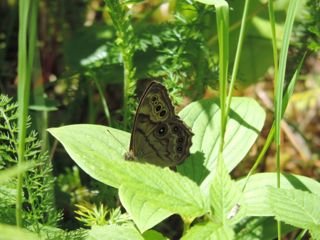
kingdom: Animalia
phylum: Arthropoda
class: Insecta
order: Lepidoptera
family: Nymphalidae
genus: Lethe
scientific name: Lethe anthedon
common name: Northern Pearly-Eye
